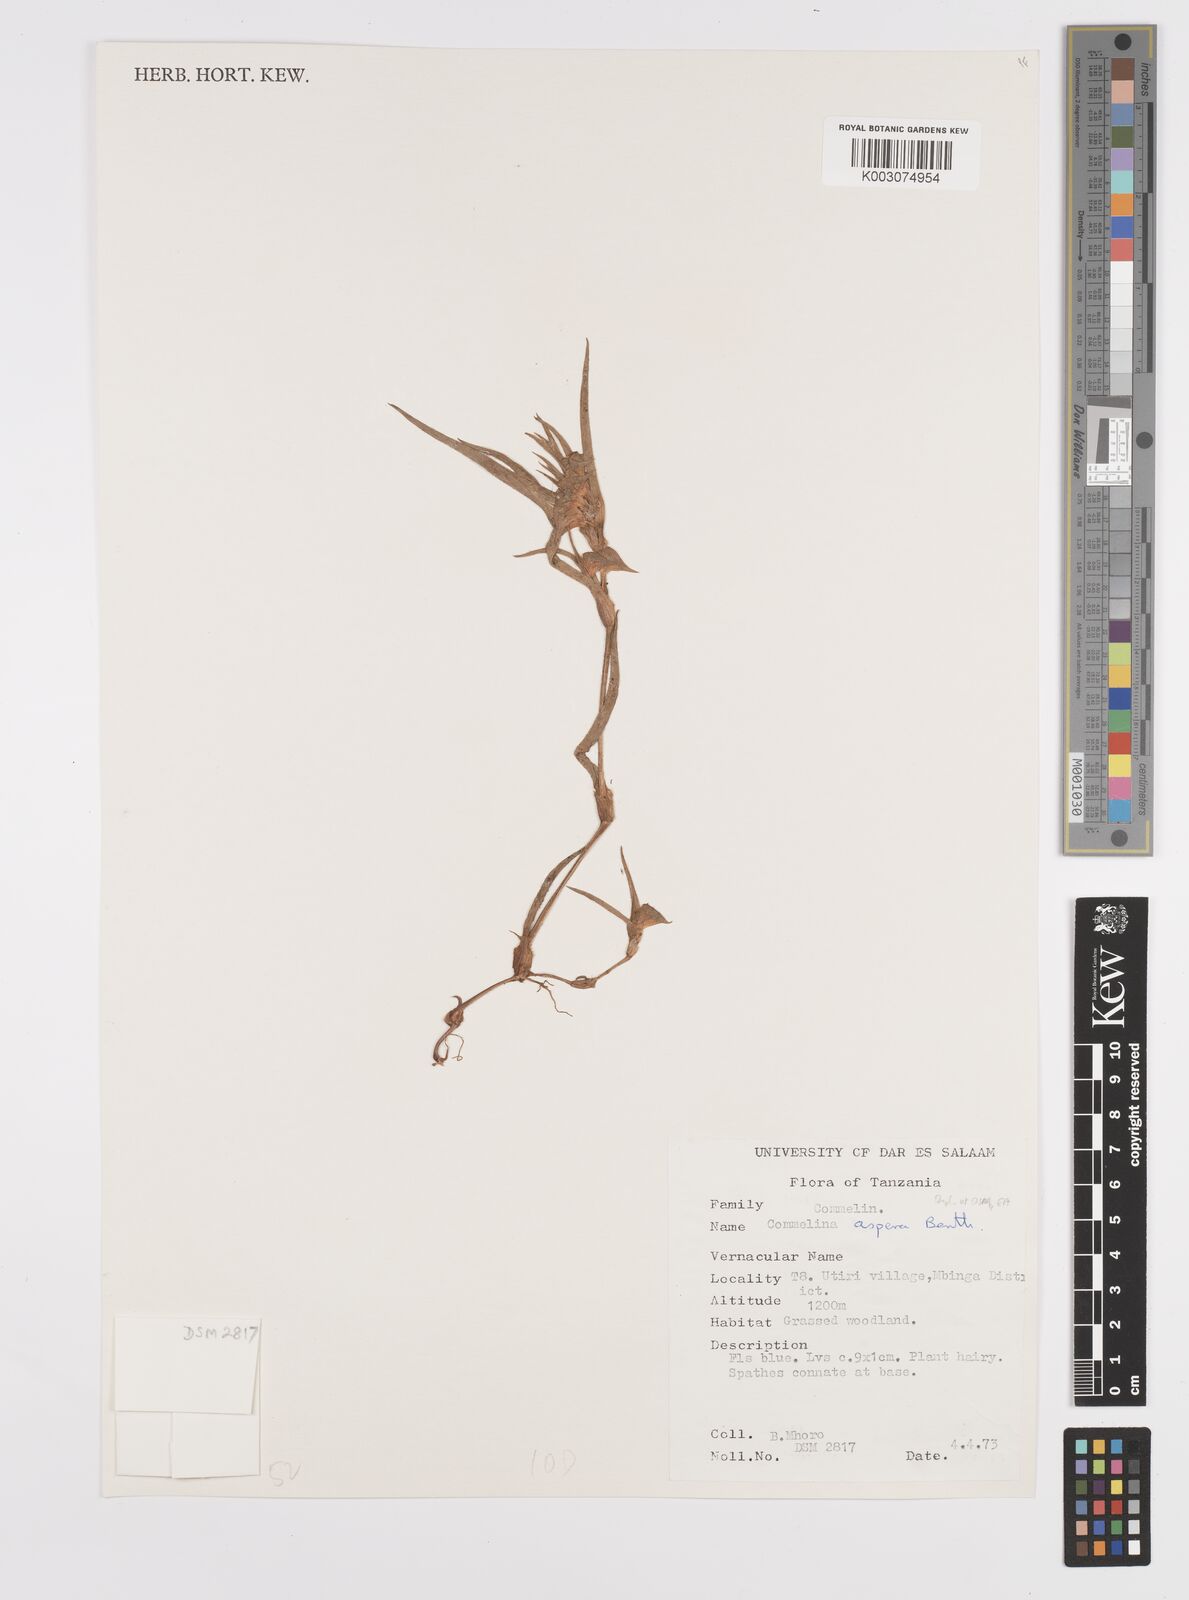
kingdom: Plantae
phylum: Tracheophyta
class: Liliopsida
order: Commelinales
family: Commelinaceae
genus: Commelina
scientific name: Commelina aspera
